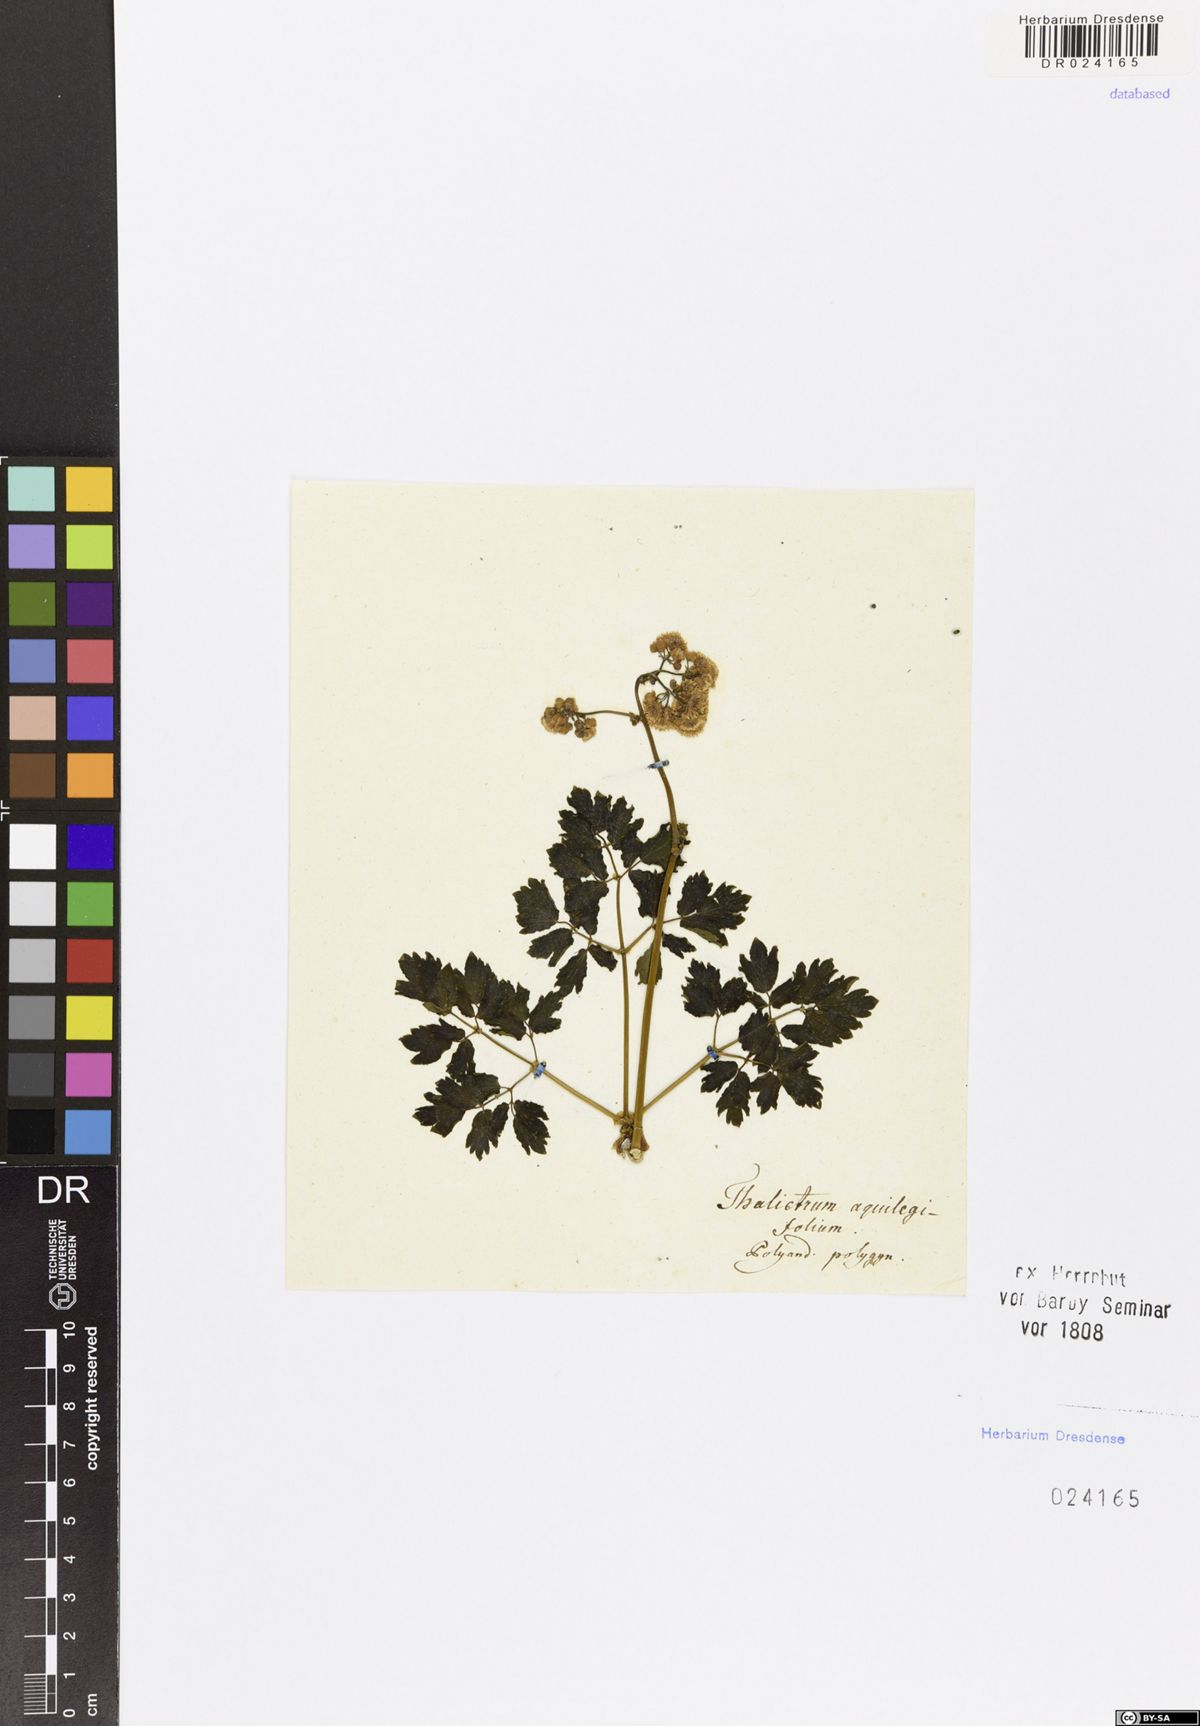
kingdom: Plantae
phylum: Tracheophyta
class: Magnoliopsida
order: Ranunculales
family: Ranunculaceae
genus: Thalictrum
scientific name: Thalictrum aquilegiifolium
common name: French meadow-rue
